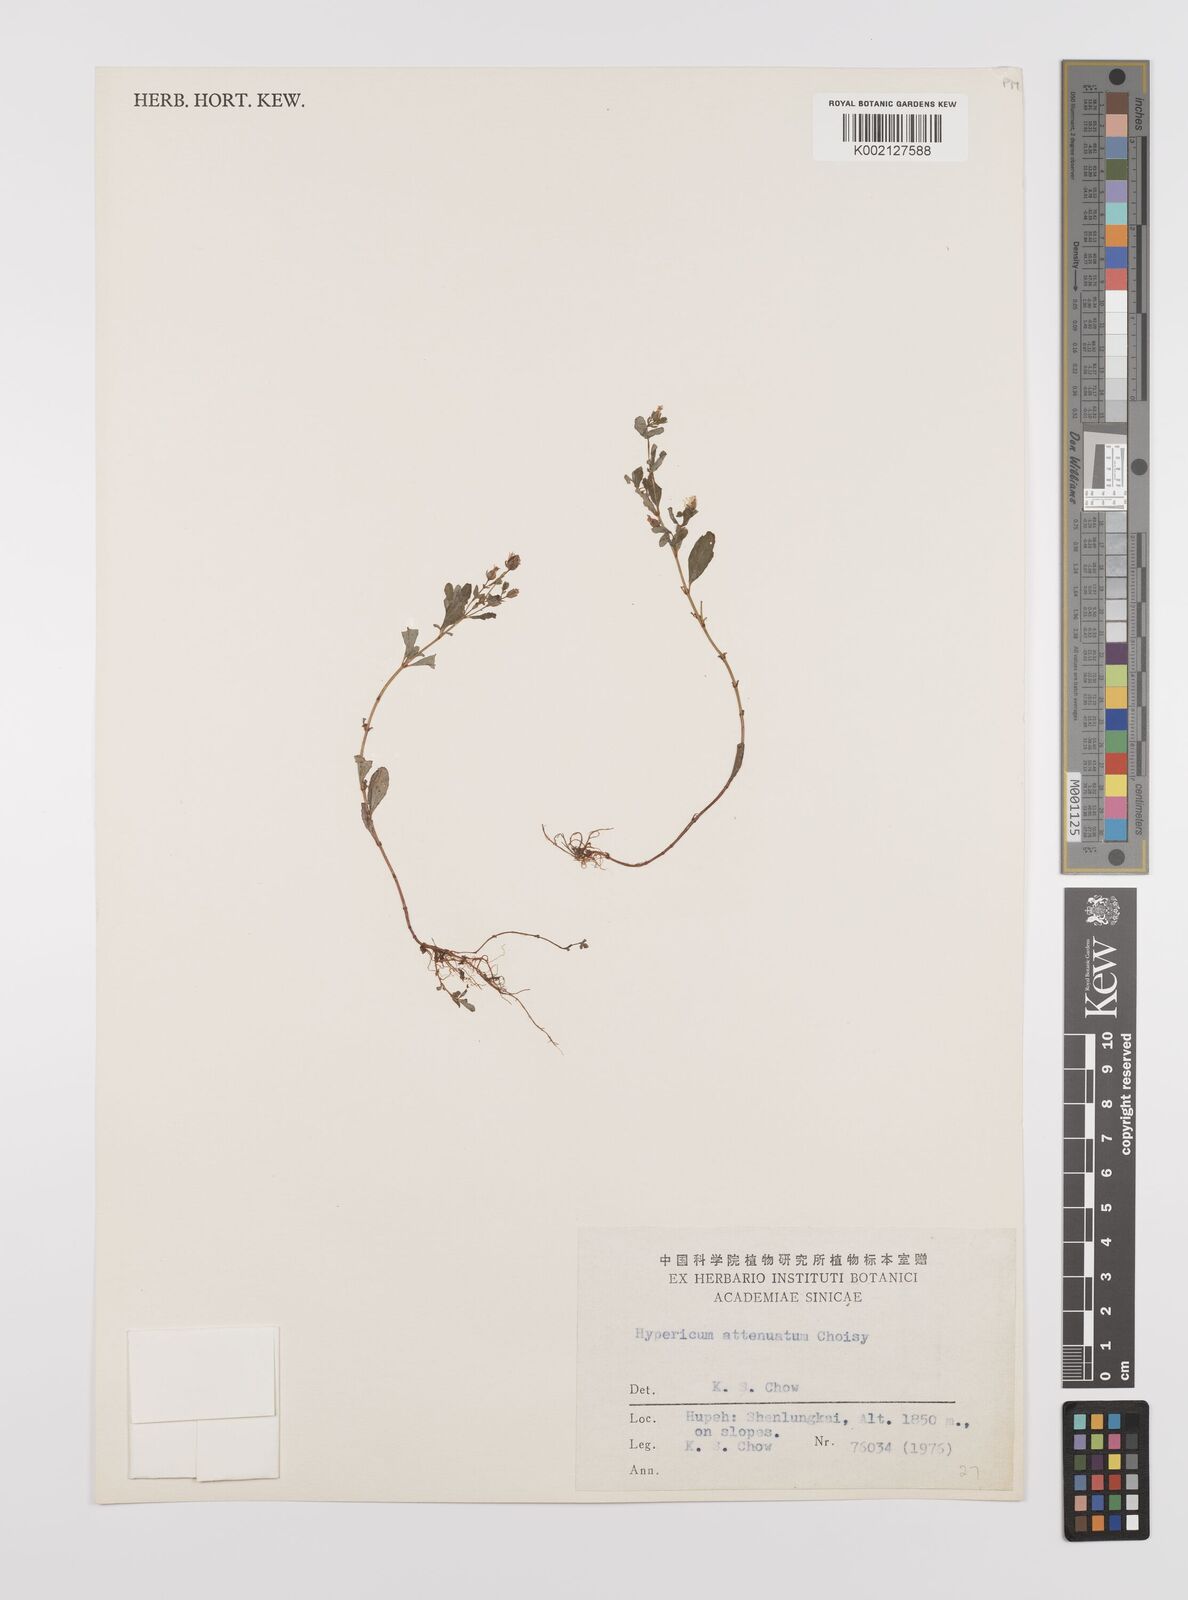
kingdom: Plantae
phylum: Tracheophyta
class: Magnoliopsida
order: Malpighiales
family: Hypericaceae
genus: Hypericum
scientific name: Hypericum petiolulatum
